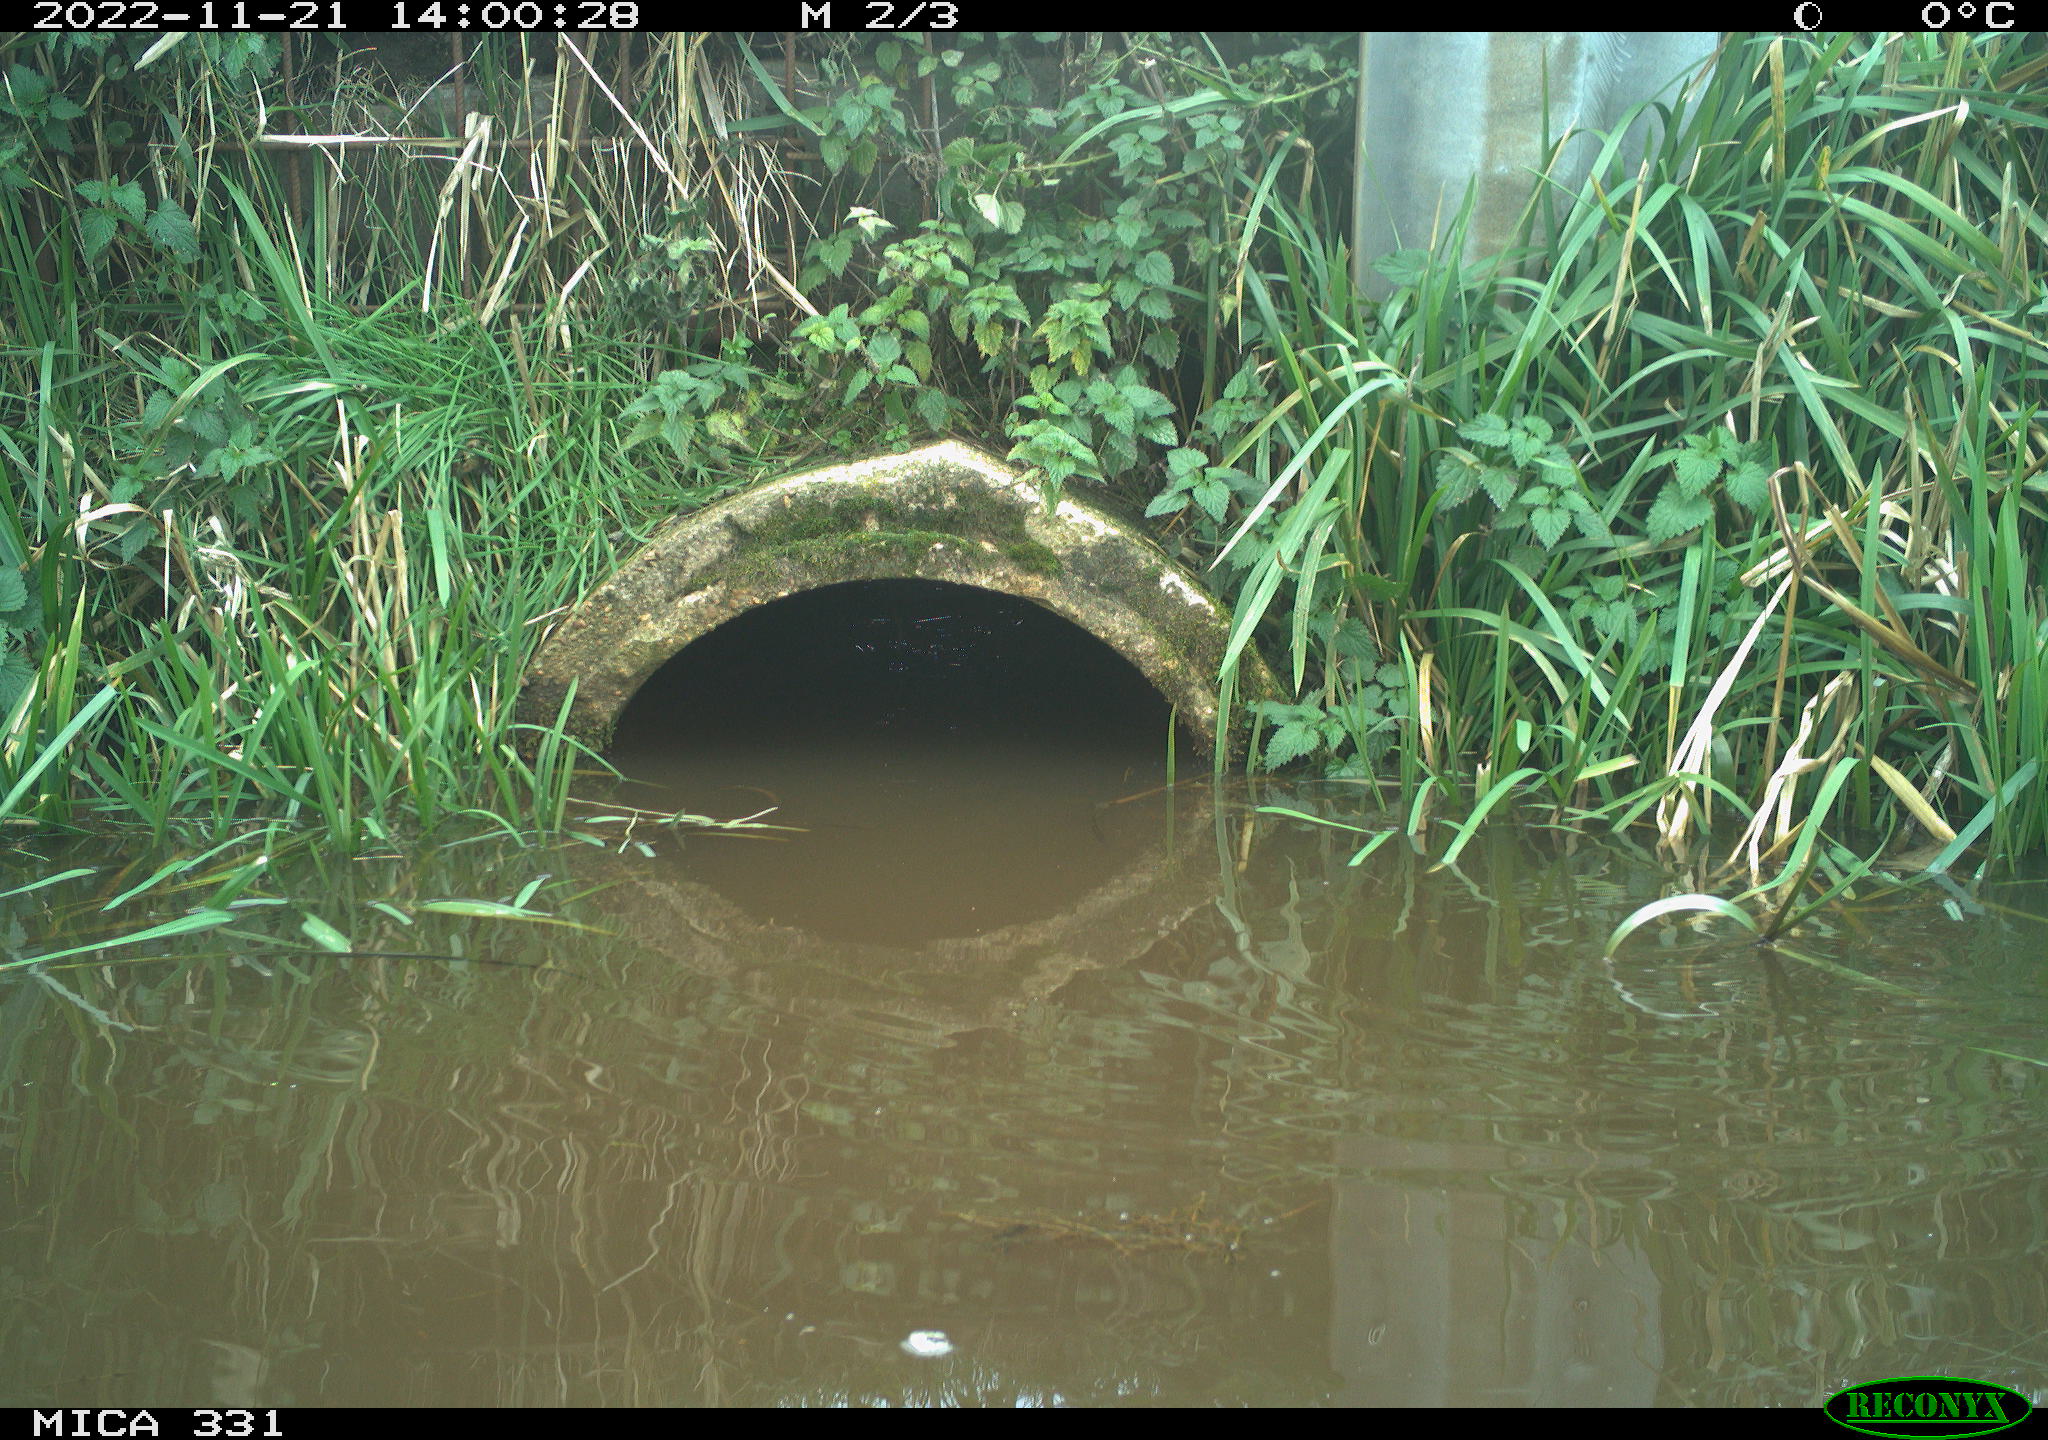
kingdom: Animalia
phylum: Chordata
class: Aves
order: Gruiformes
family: Rallidae
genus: Gallinula
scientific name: Gallinula chloropus
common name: Common moorhen
